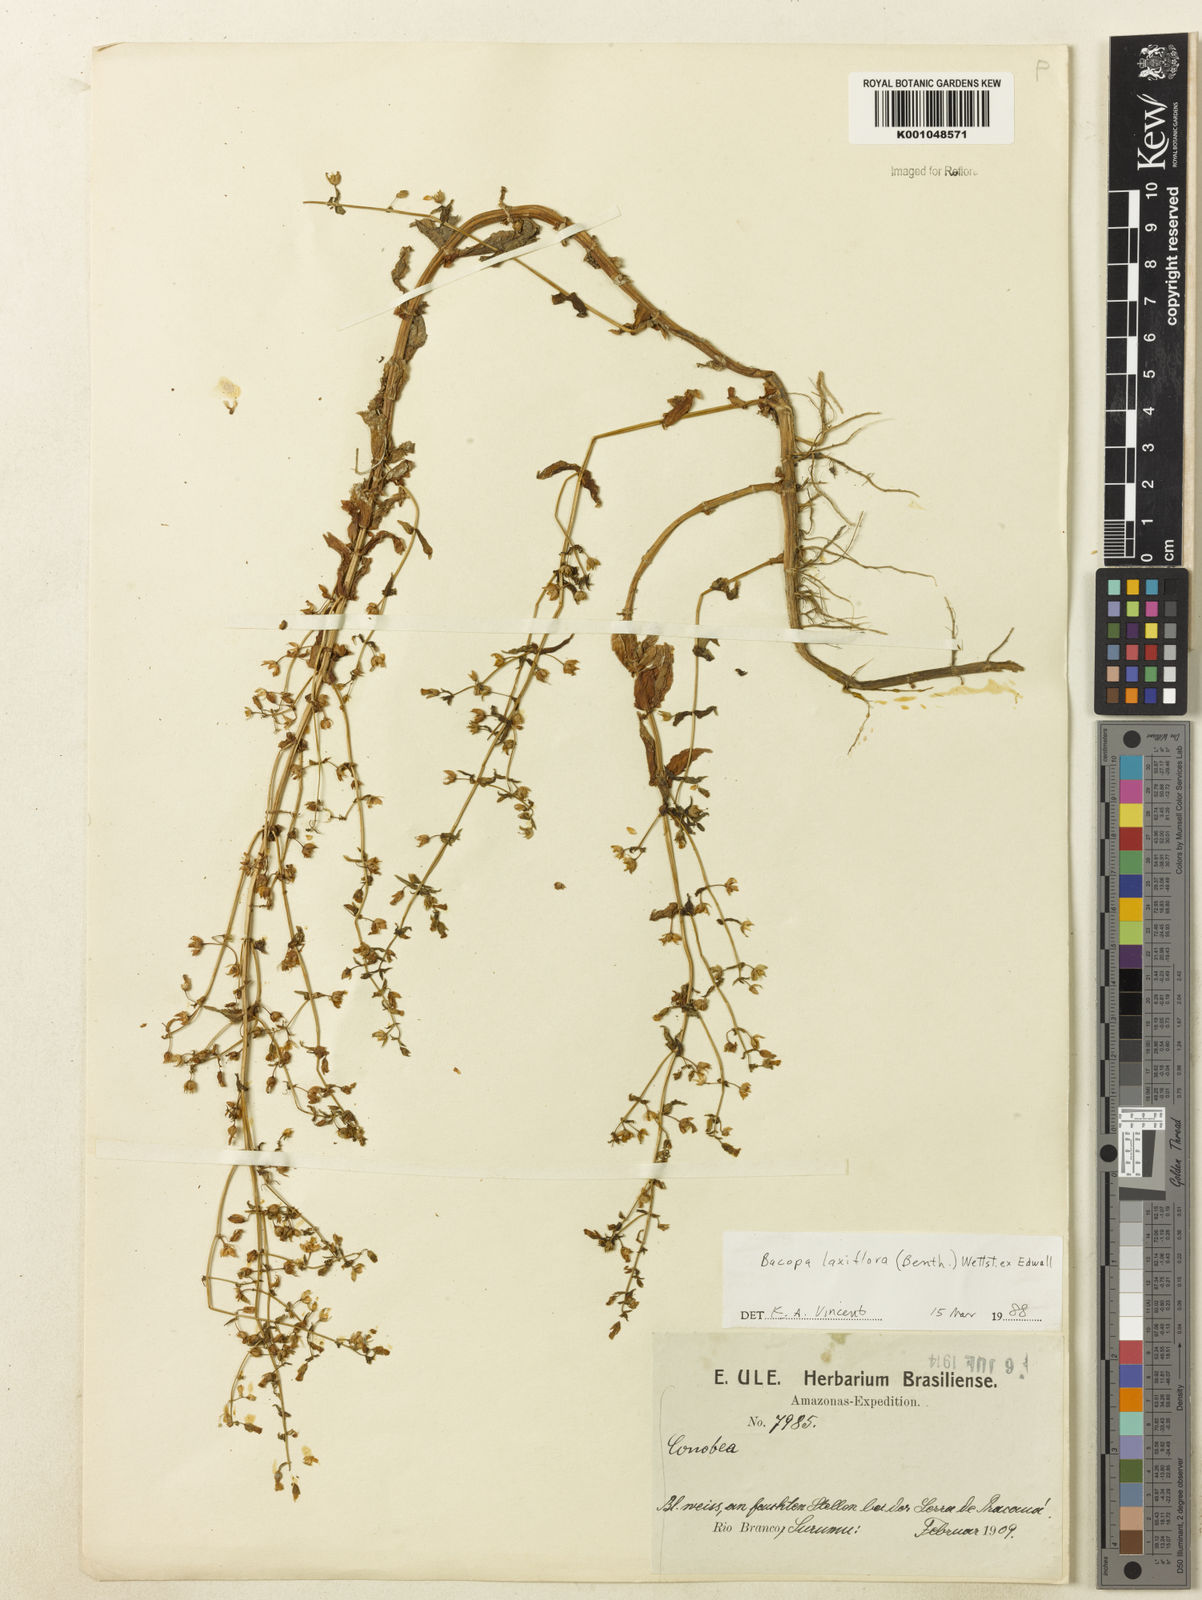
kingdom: Plantae
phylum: Tracheophyta
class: Magnoliopsida
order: Lamiales
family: Plantaginaceae
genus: Bacopa
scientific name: Bacopa laxiflora
